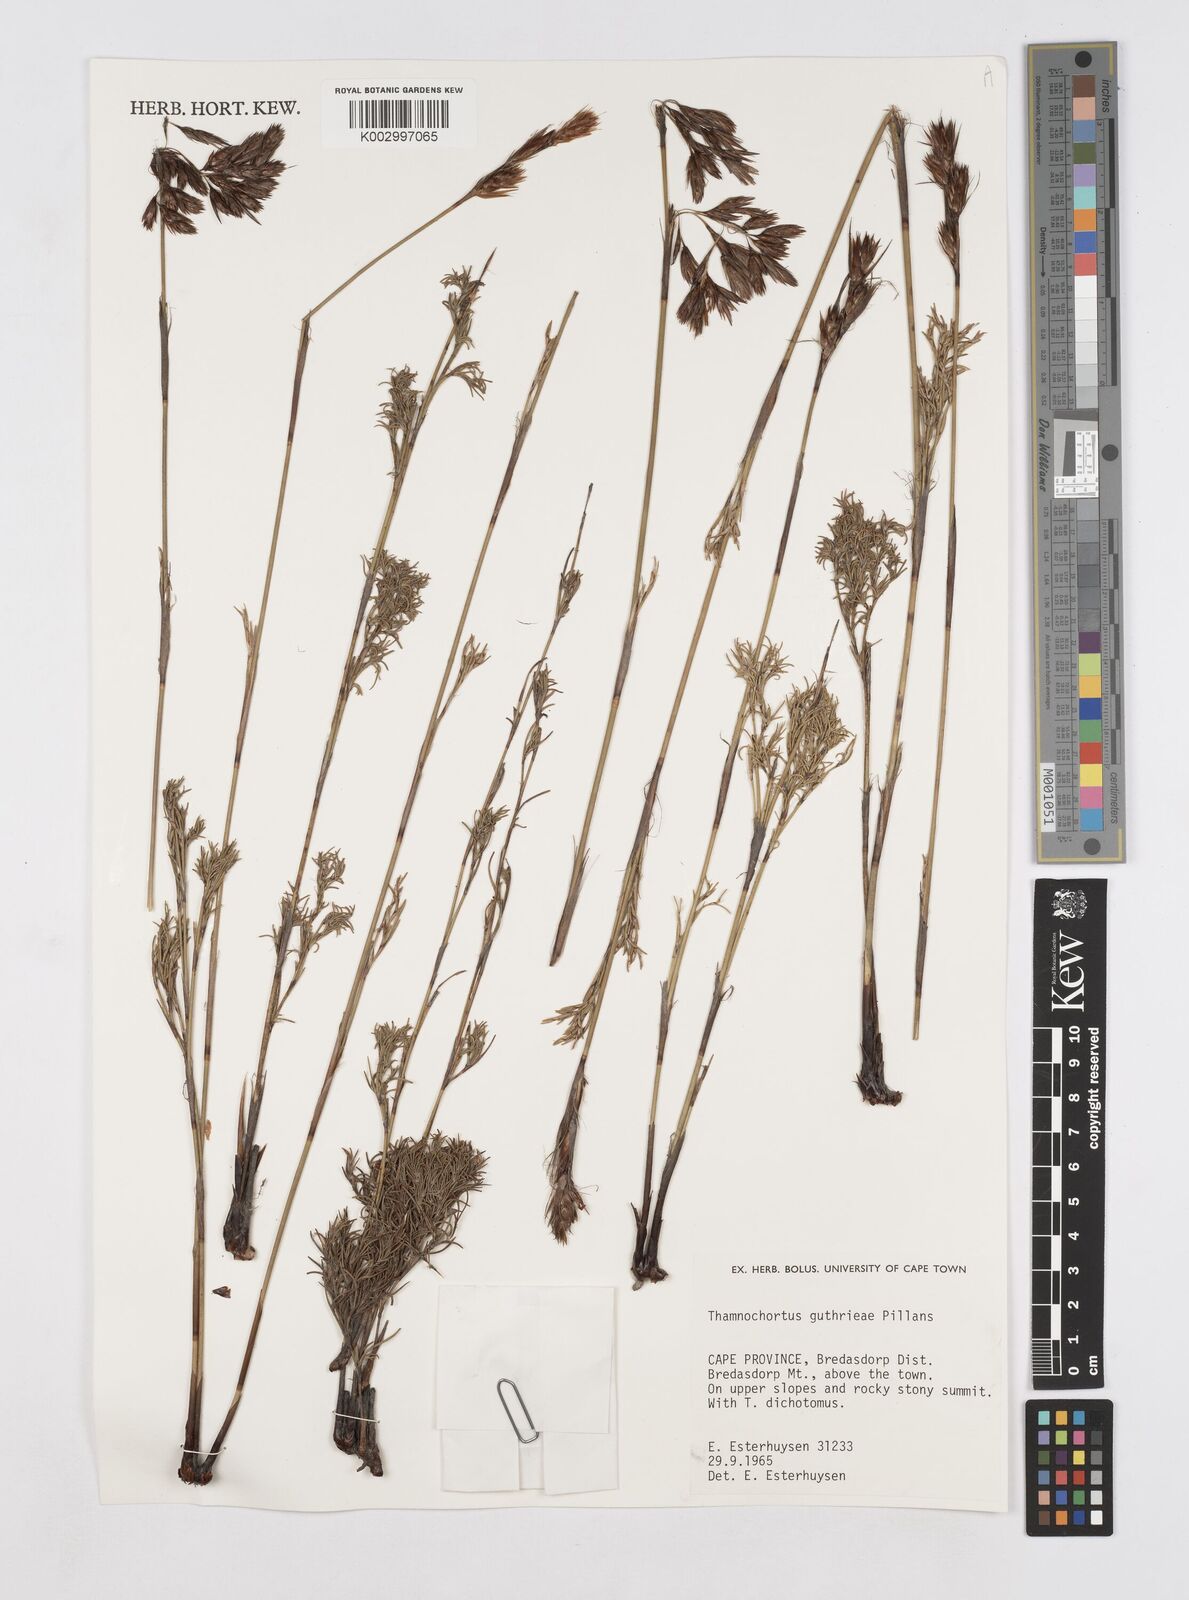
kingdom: Plantae
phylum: Tracheophyta
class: Liliopsida
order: Poales
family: Restionaceae
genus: Thamnochortus
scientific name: Thamnochortus guthrieae
